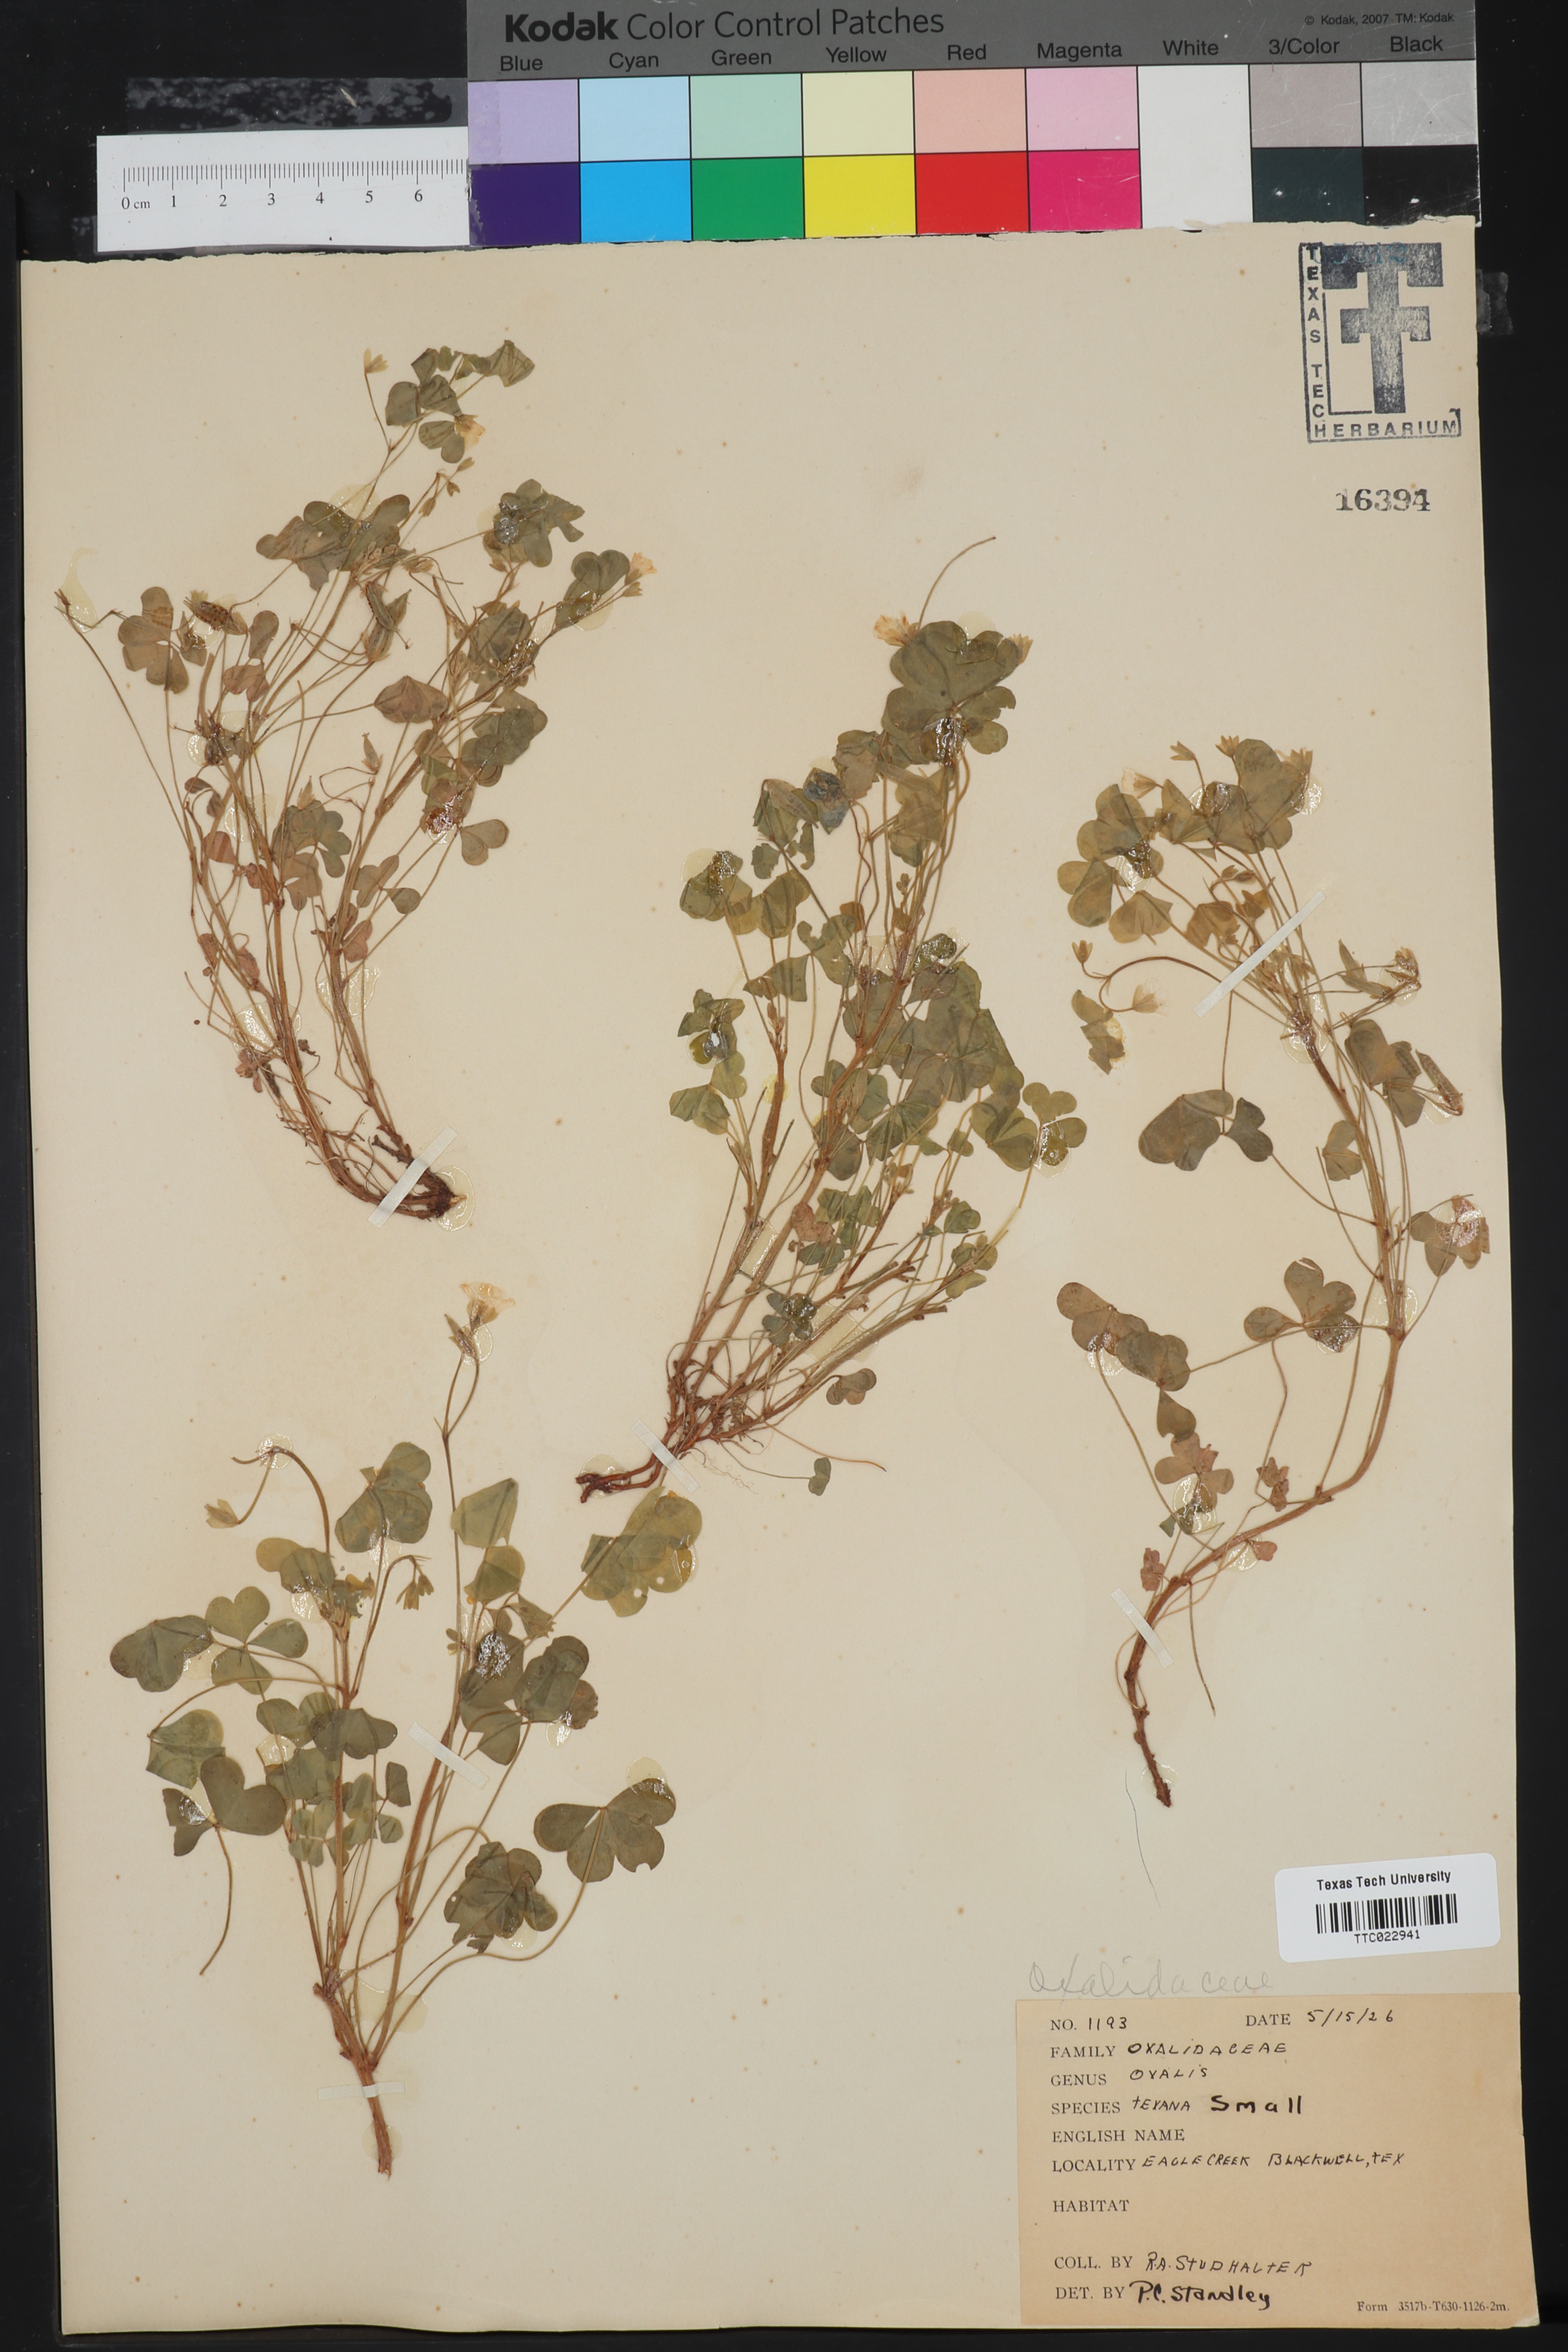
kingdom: Plantae
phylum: Tracheophyta
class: Magnoliopsida
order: Oxalidales
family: Oxalidaceae
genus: Oxalis
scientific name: Oxalis texana
